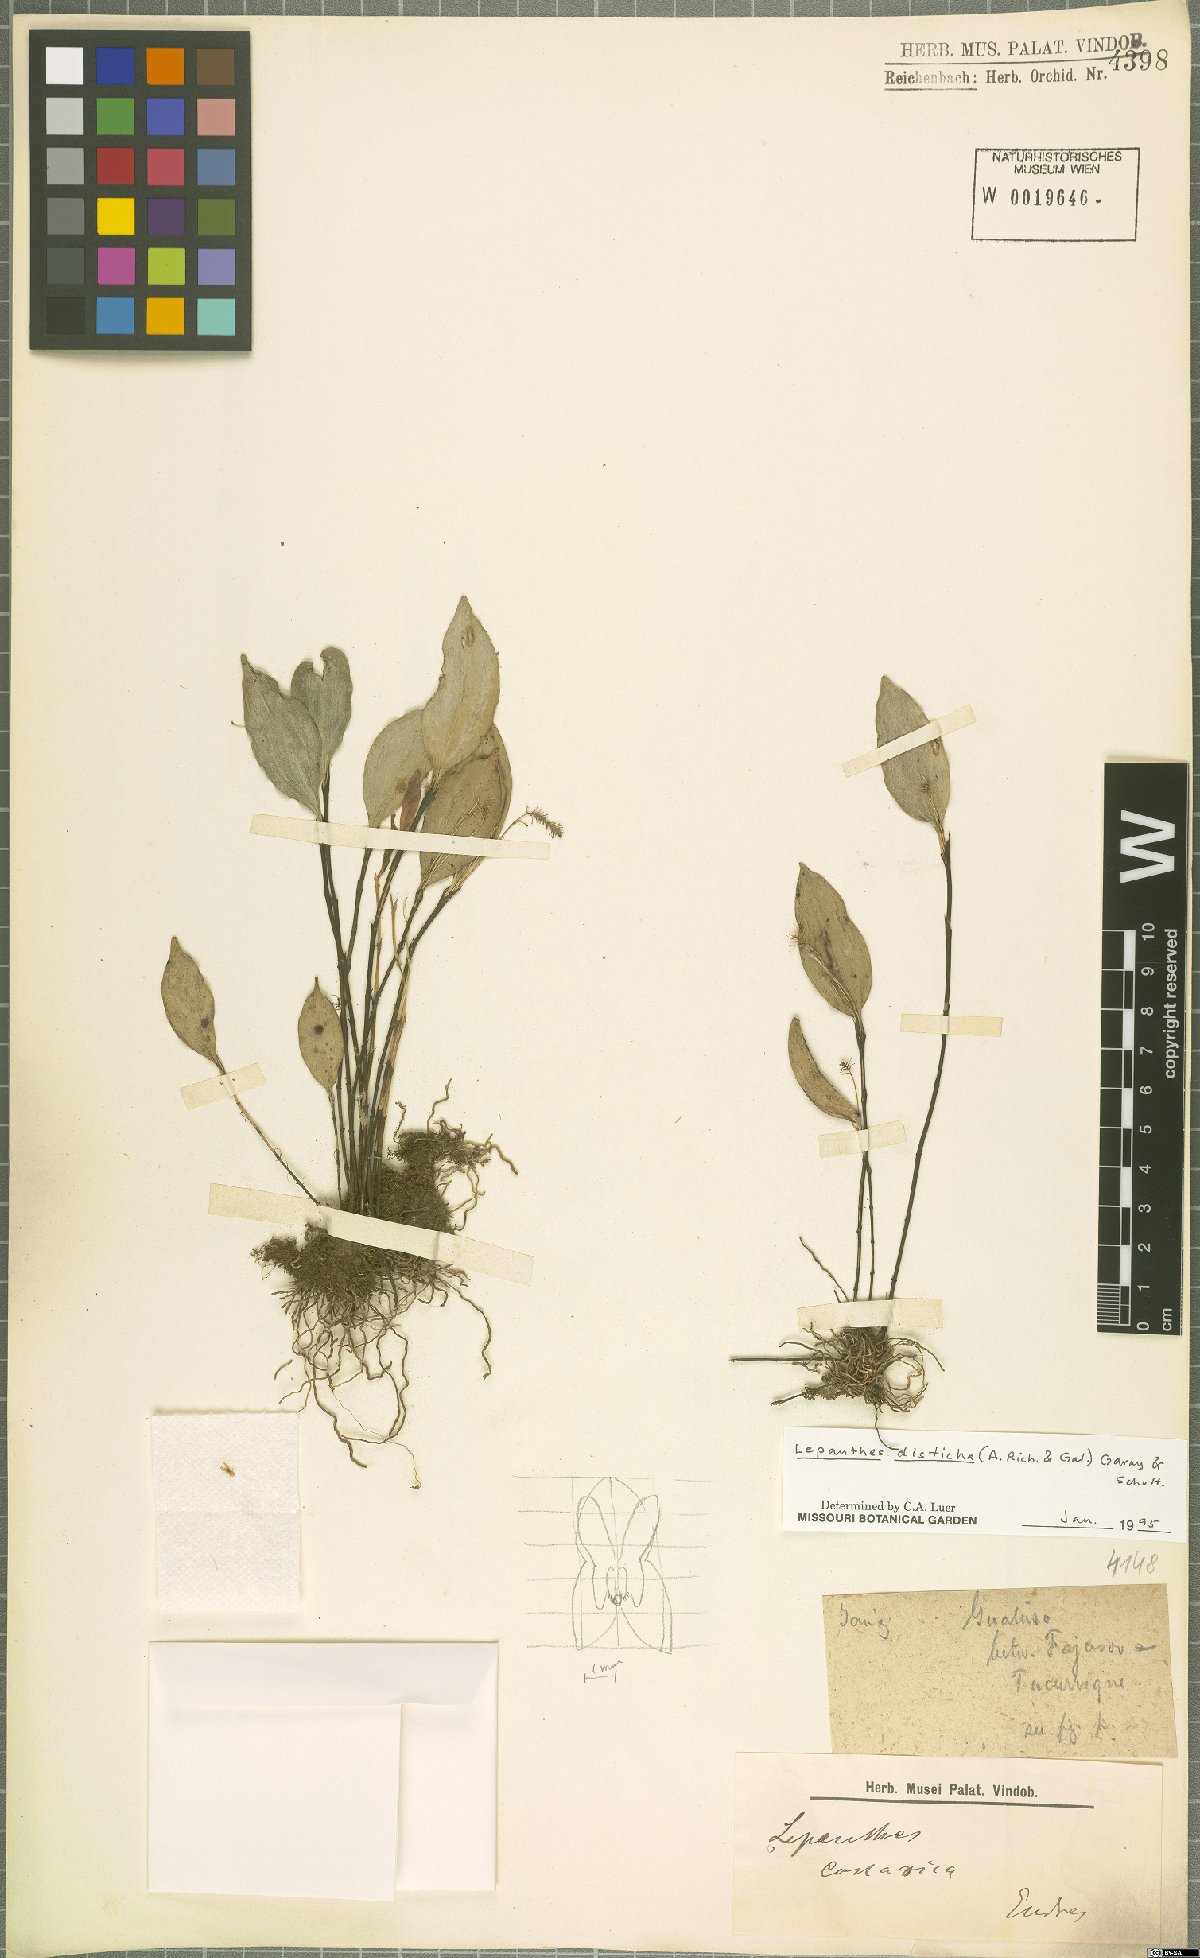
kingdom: Plantae
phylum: Tracheophyta
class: Liliopsida
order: Asparagales
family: Orchidaceae
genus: Lepanthes
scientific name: Lepanthes disticha
